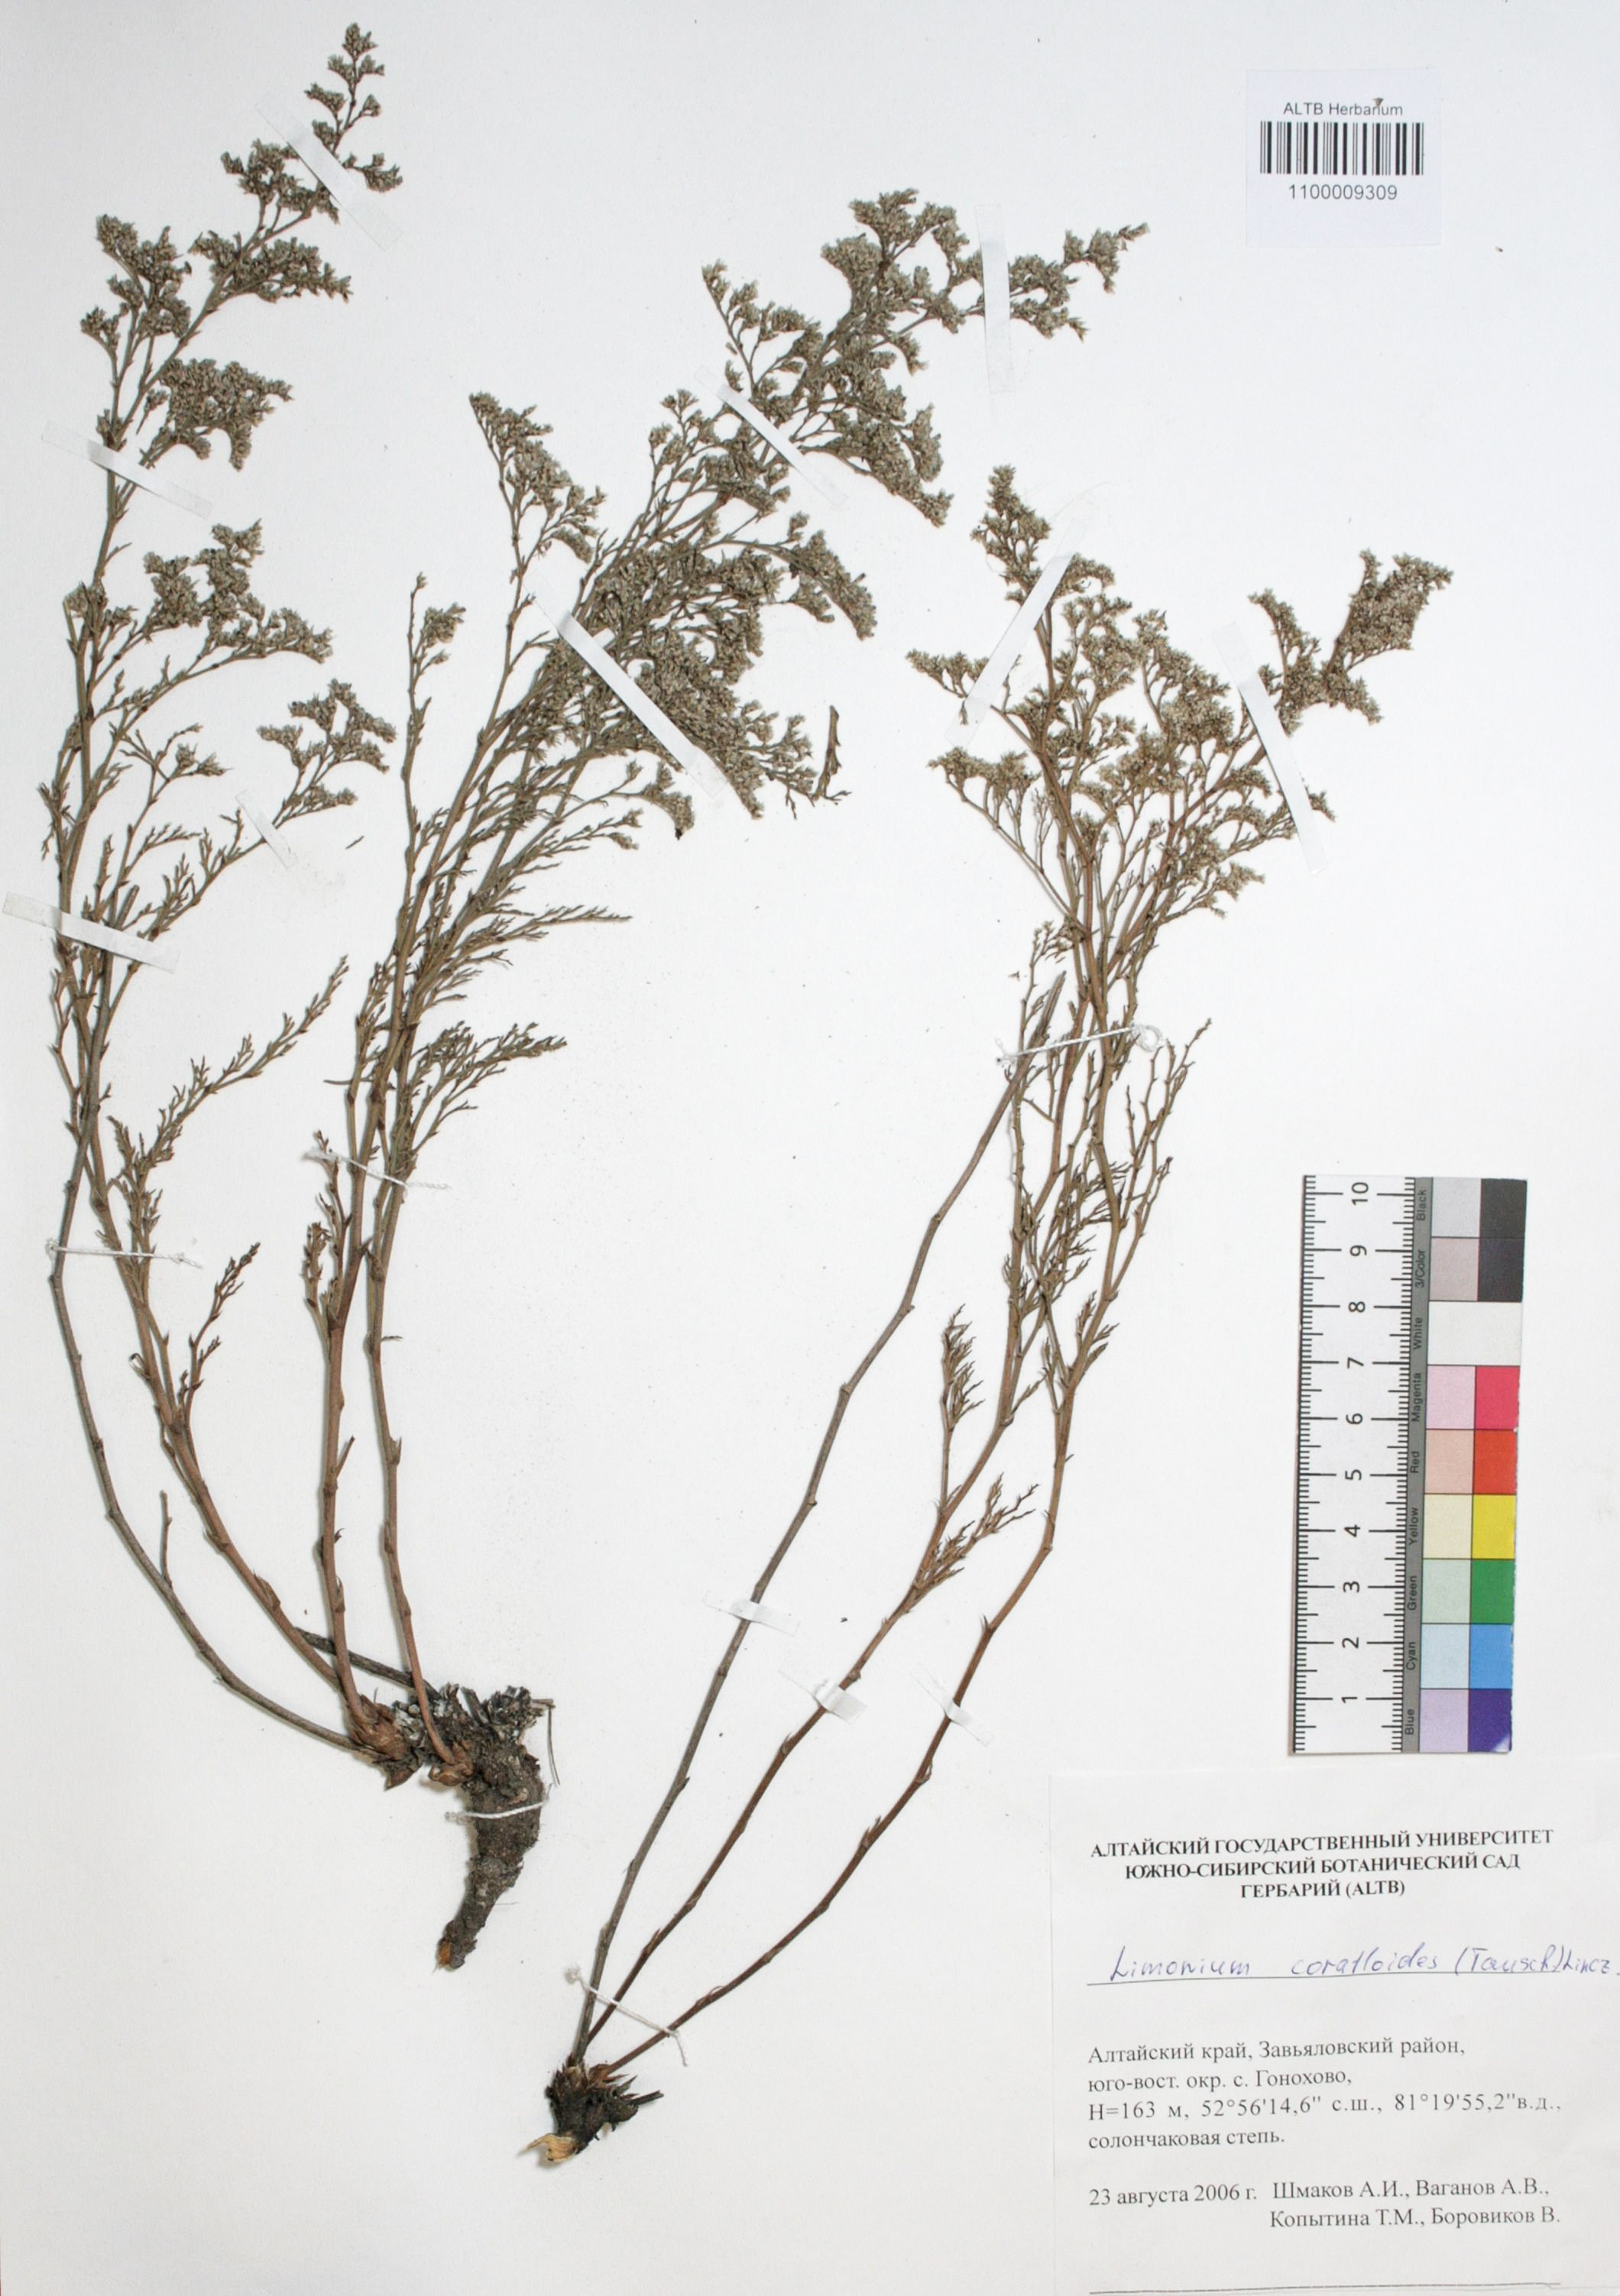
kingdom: Plantae
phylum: Tracheophyta
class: Magnoliopsida
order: Caryophyllales
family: Plumbaginaceae
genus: Limonium
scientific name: Limonium coralloides
